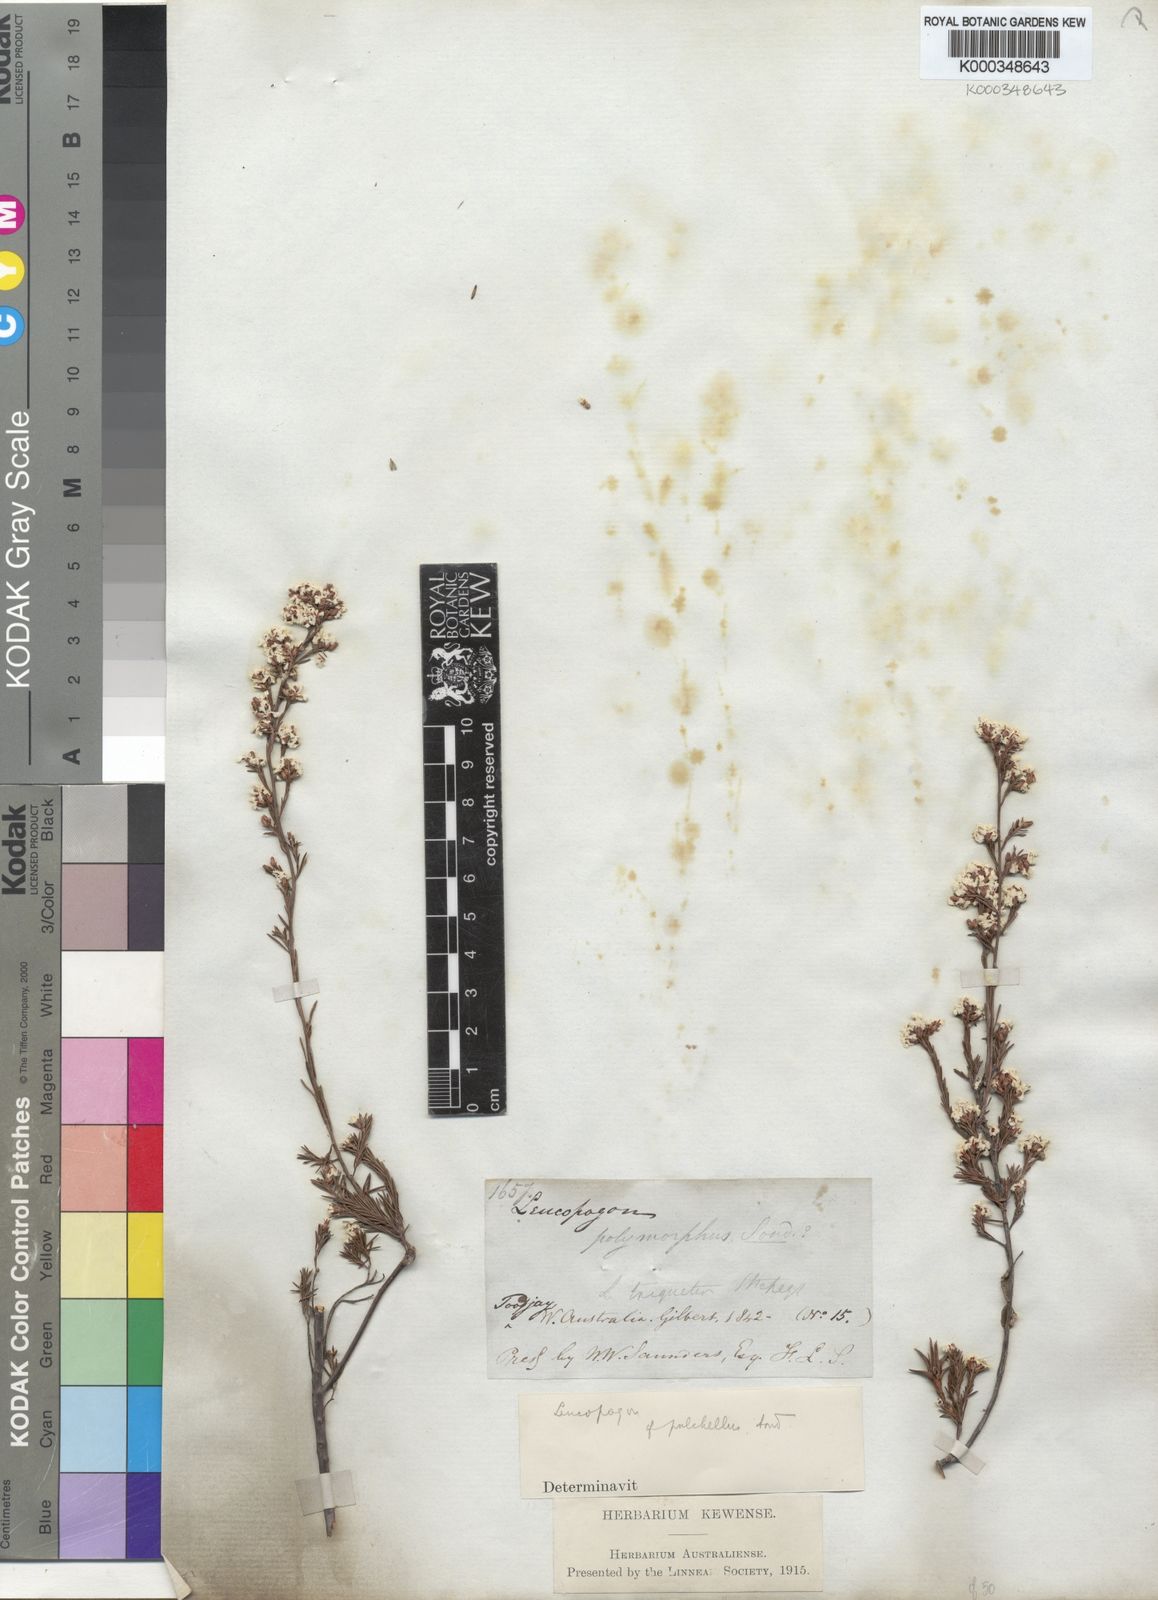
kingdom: Plantae
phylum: Tracheophyta
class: Magnoliopsida
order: Ericales
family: Ericaceae
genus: Leucopogon
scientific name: Leucopogon pulchellus
